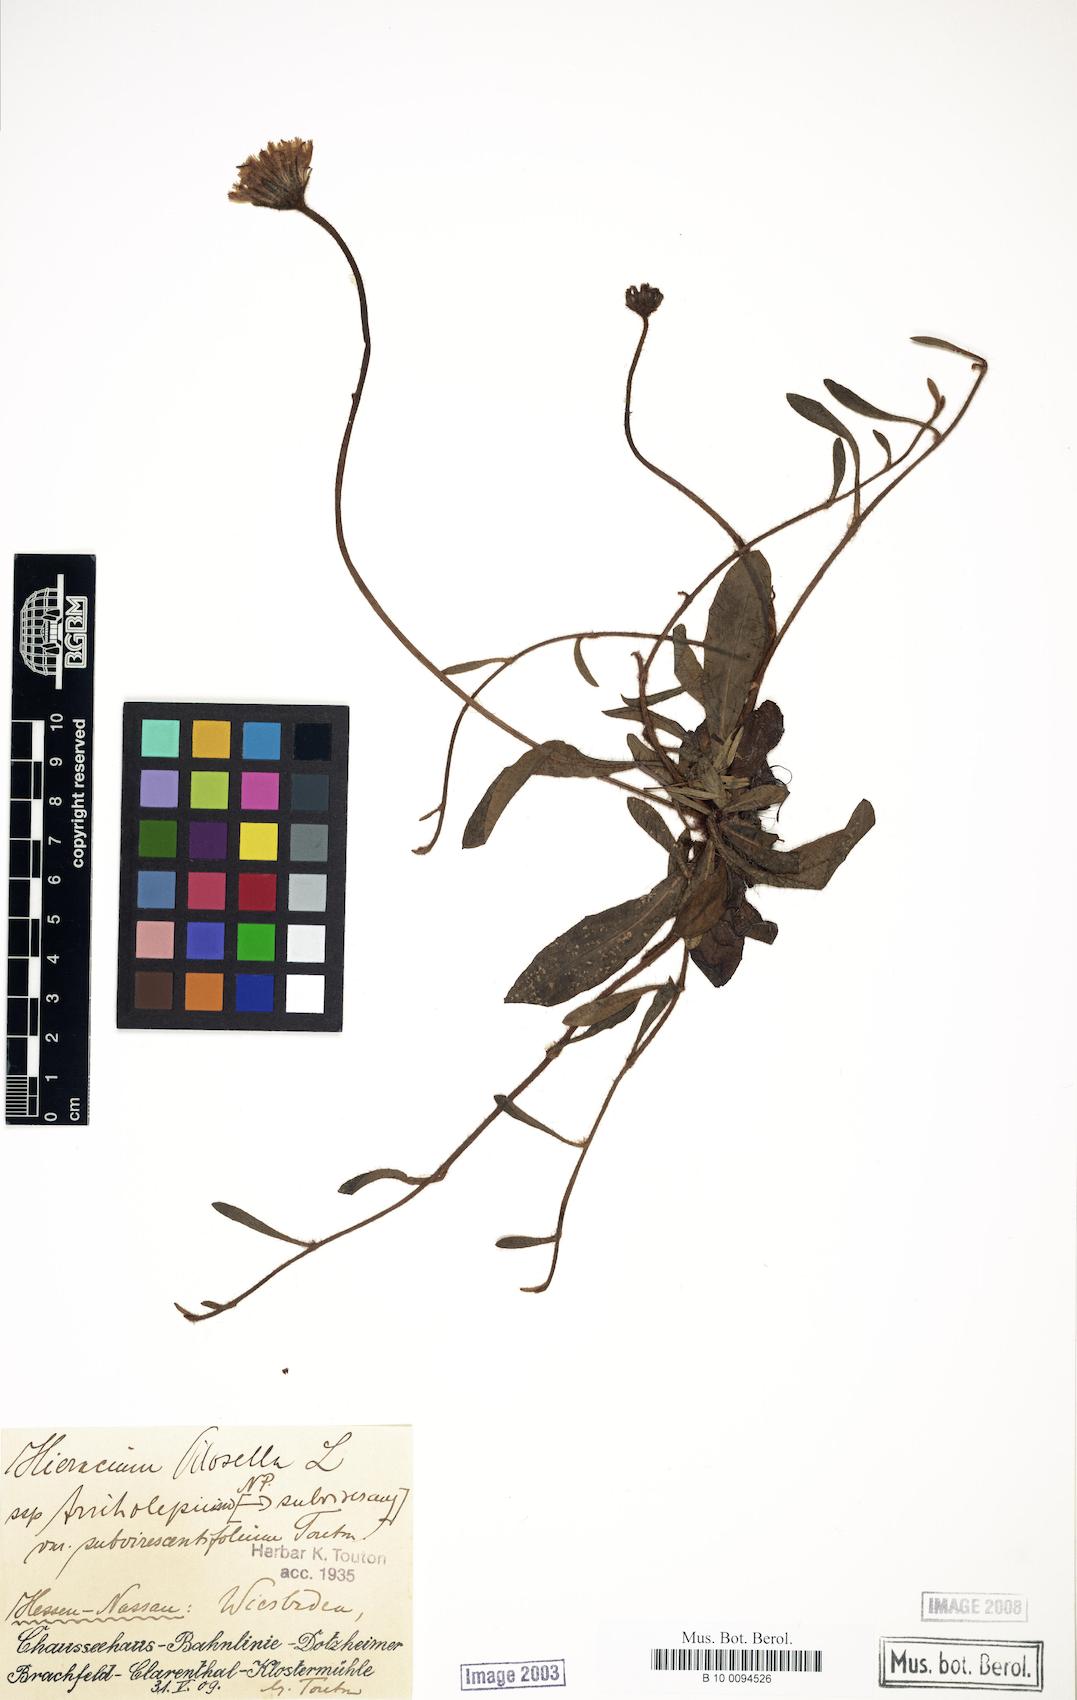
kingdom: Plantae
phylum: Tracheophyta
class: Magnoliopsida
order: Asterales
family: Asteraceae
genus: Pilosella
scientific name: Pilosella officinarum
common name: Mouse-ear hawkweed
